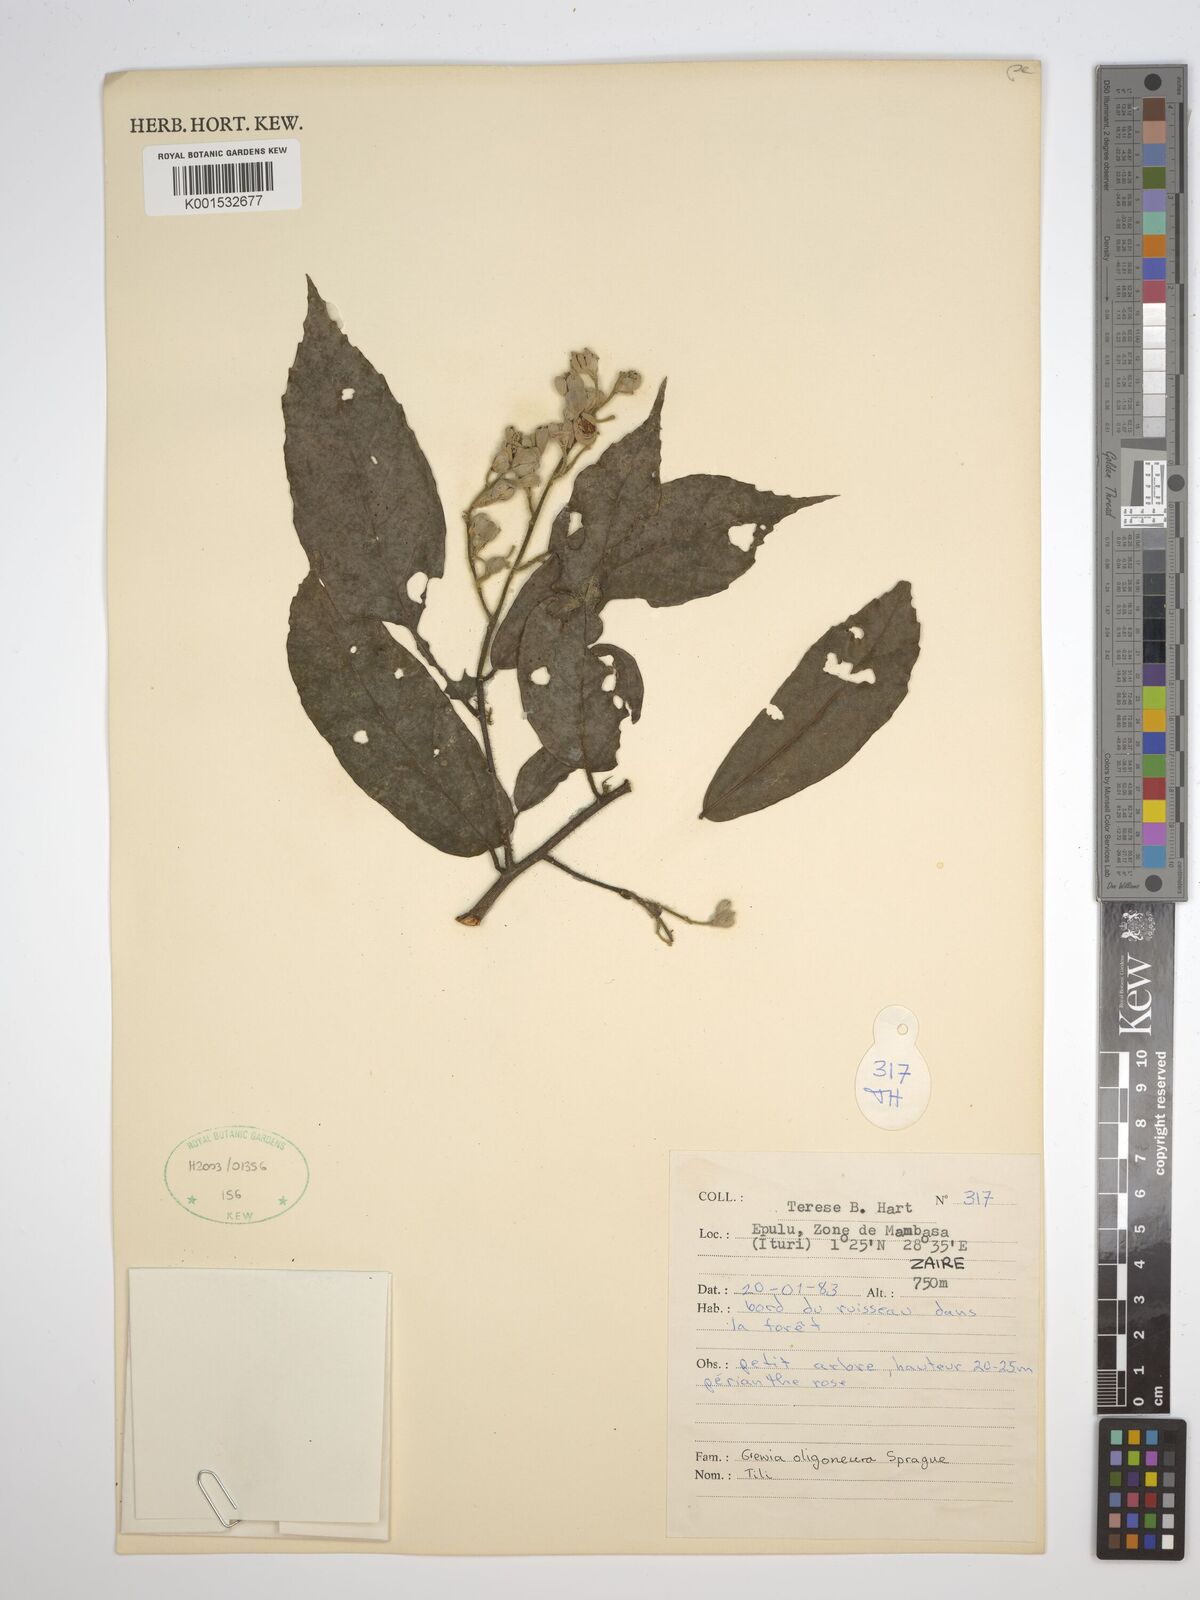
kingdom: Plantae
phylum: Tracheophyta
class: Magnoliopsida
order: Malvales
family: Malvaceae
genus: Microcos
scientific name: Microcos oligoneura
